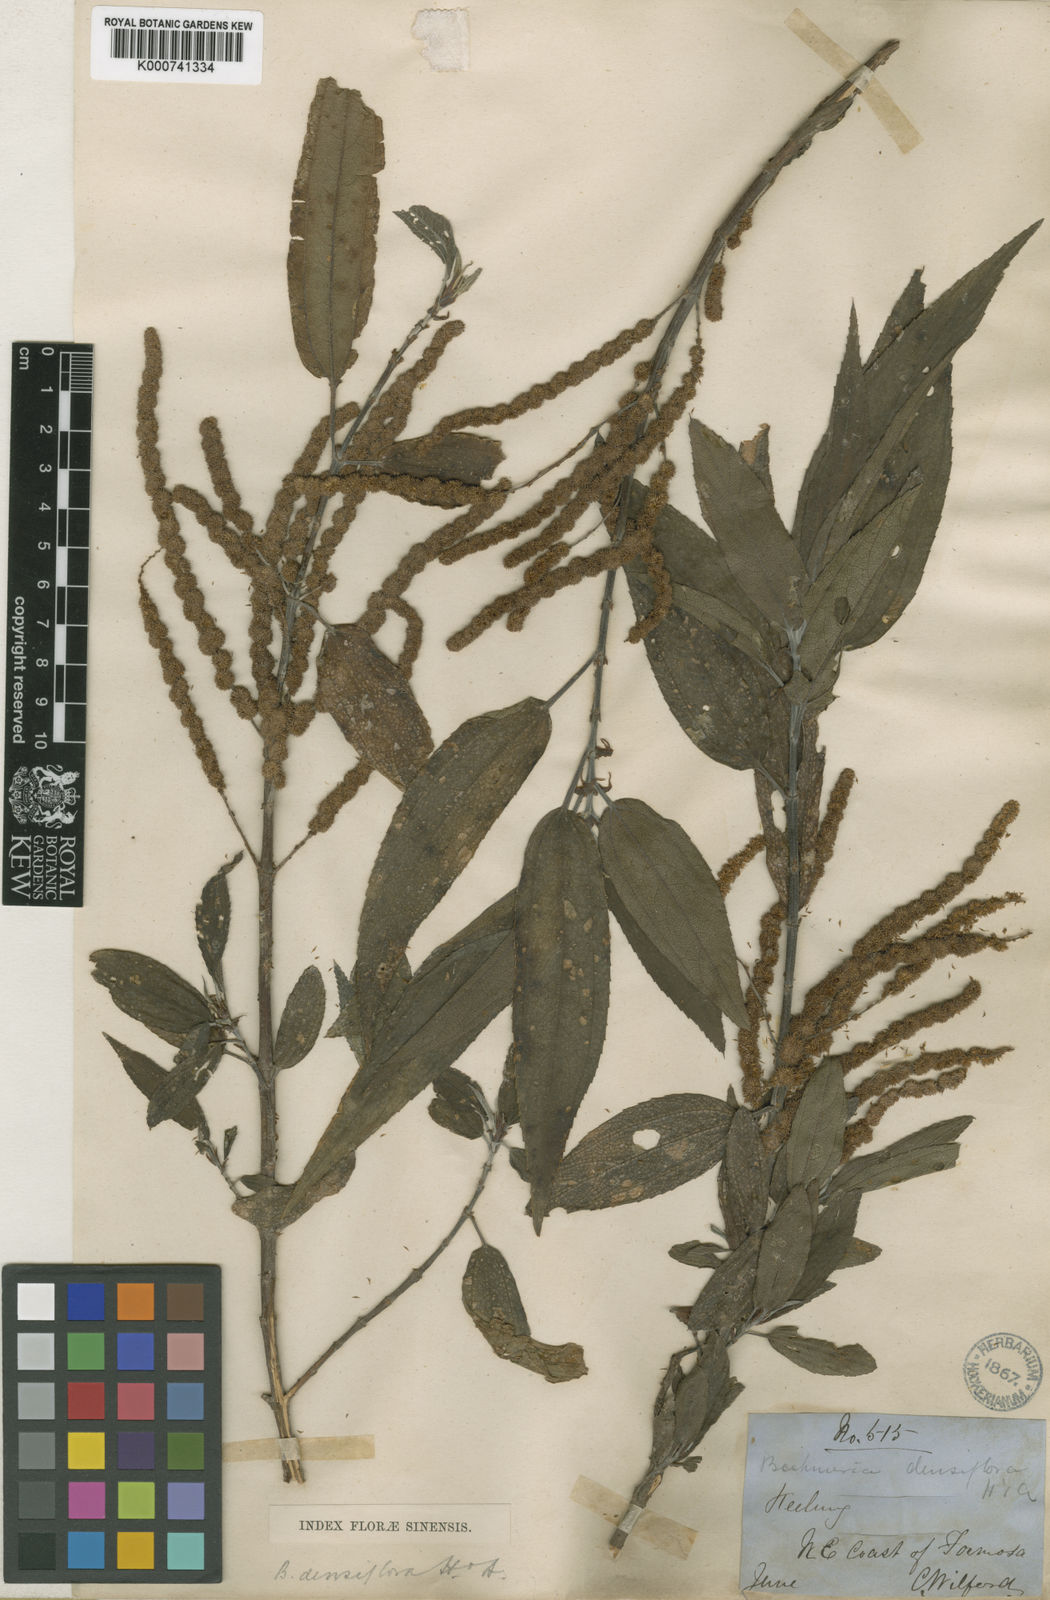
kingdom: Plantae
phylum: Tracheophyta
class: Magnoliopsida
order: Rosales
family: Urticaceae
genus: Boehmeria
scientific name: Boehmeria densiflora
